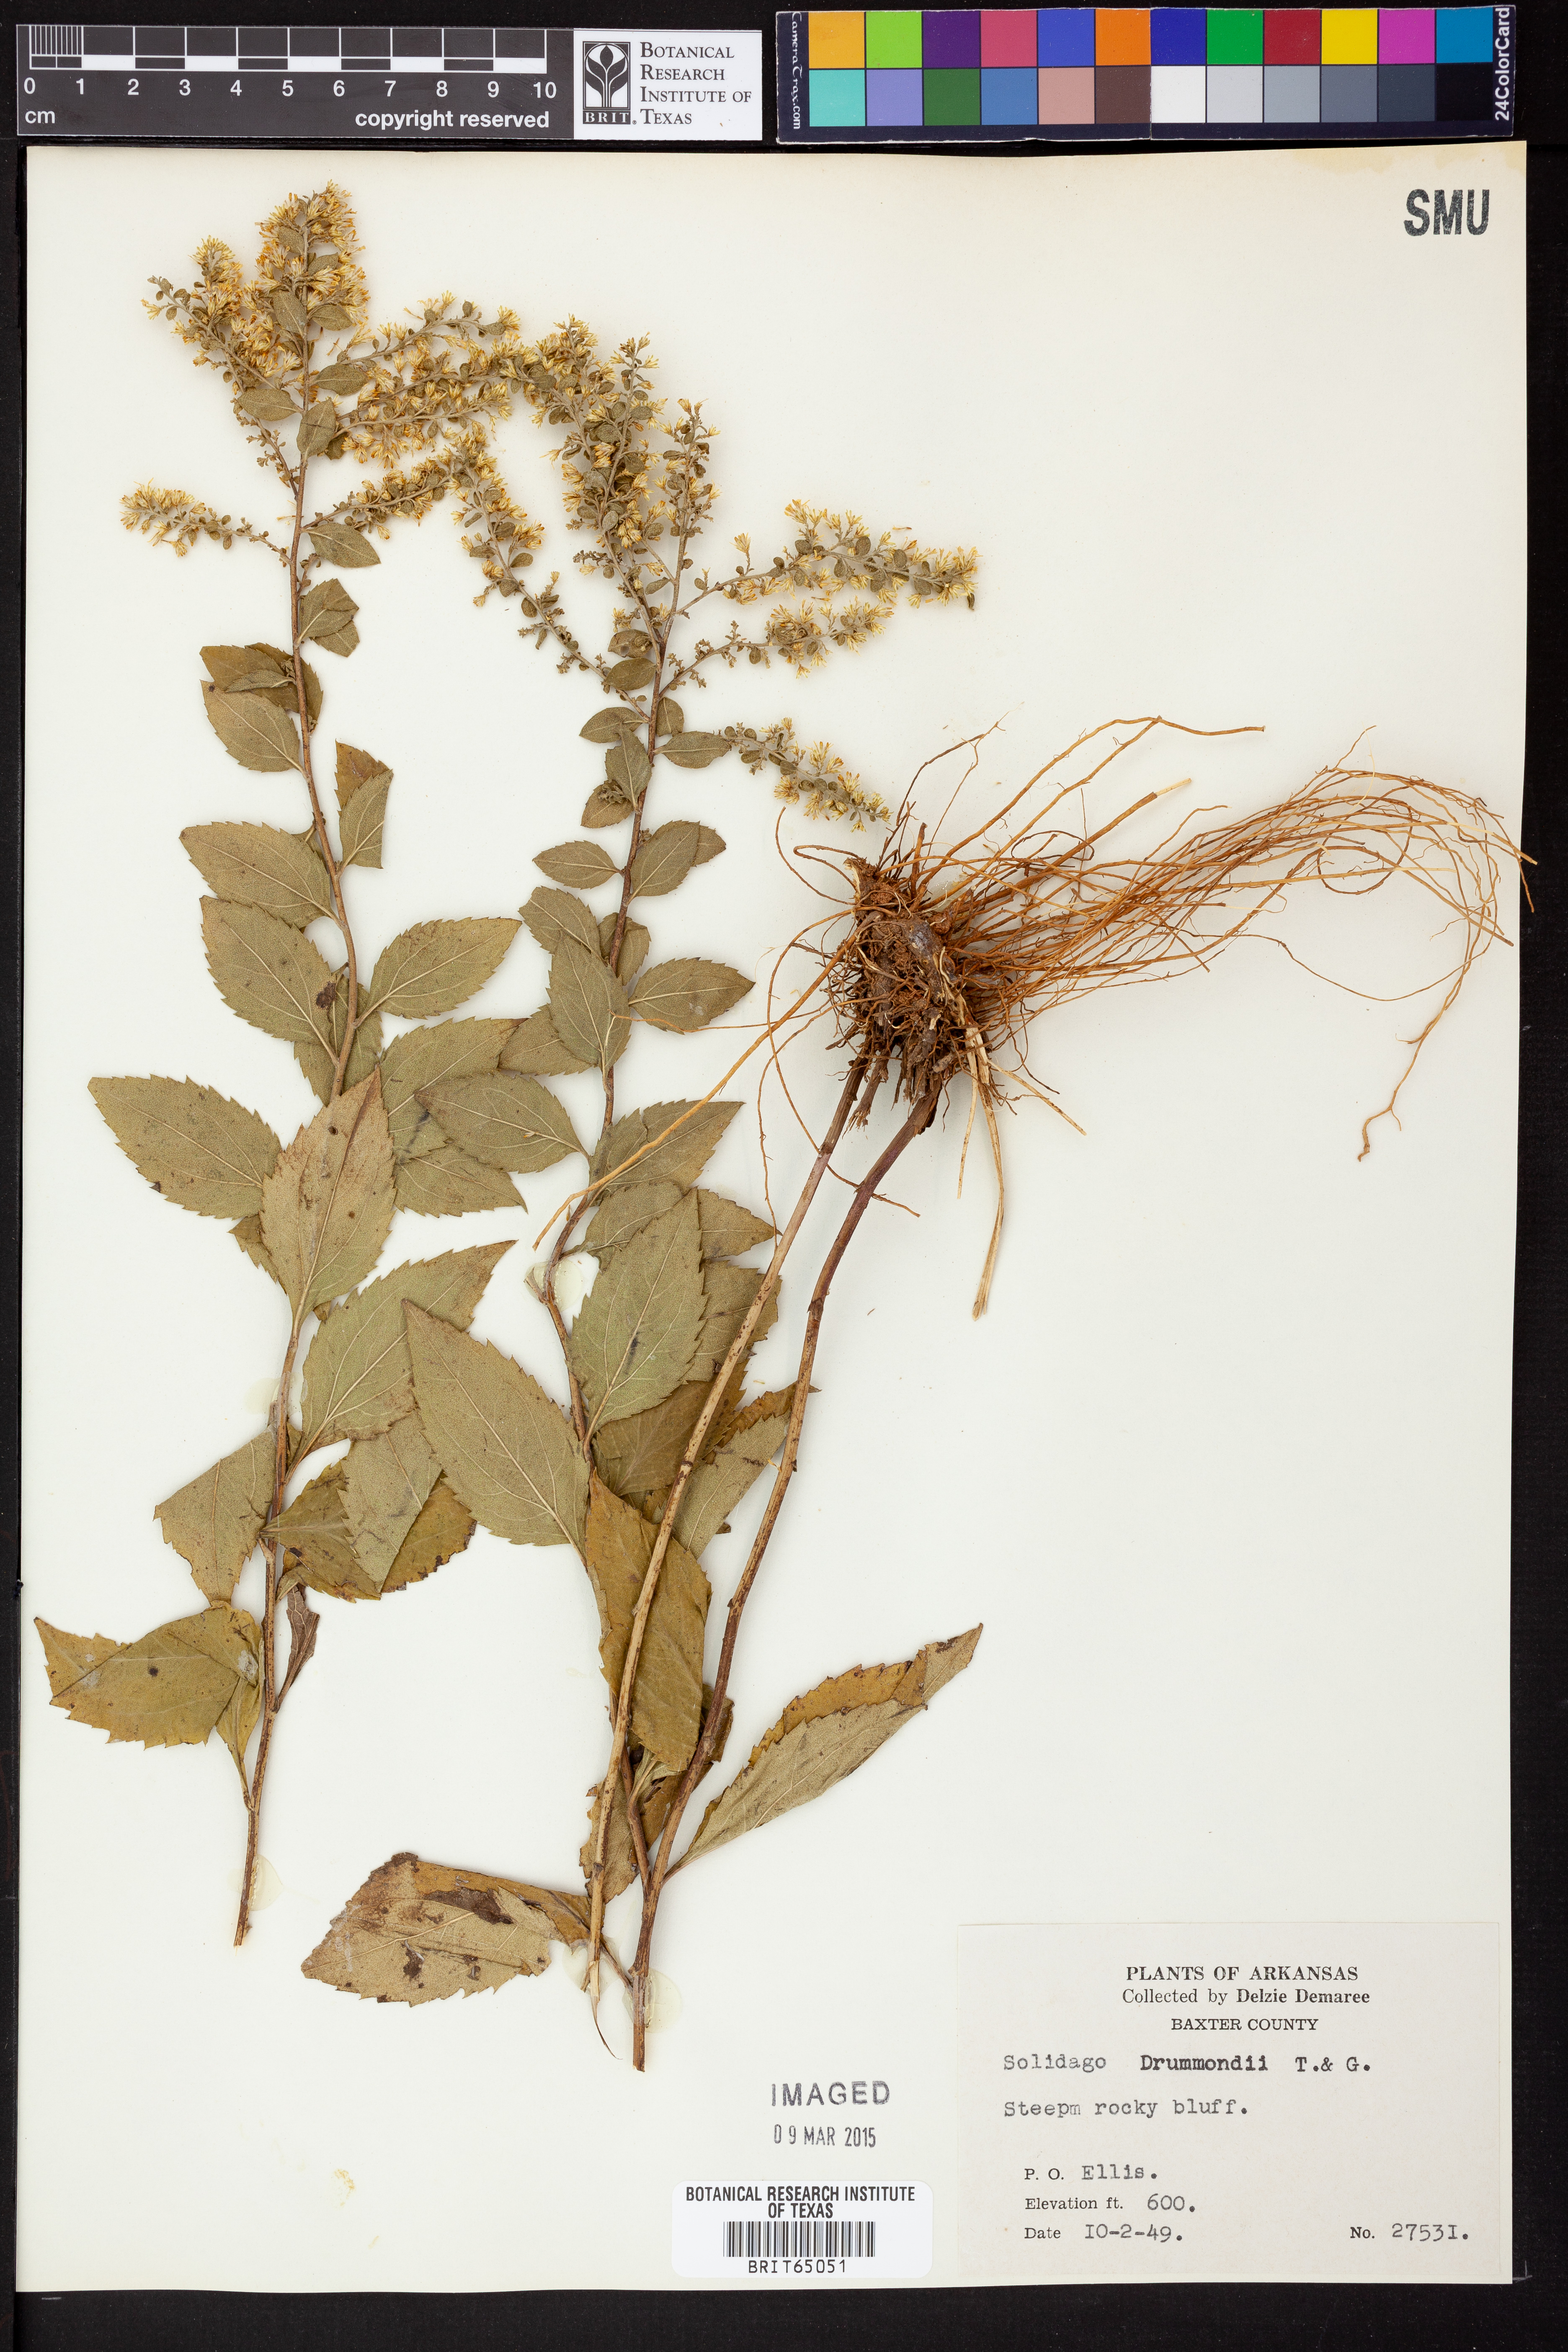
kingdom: Plantae
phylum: Tracheophyta
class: Magnoliopsida
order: Asterales
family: Asteraceae
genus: Solidago
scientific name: Solidago drummondii
